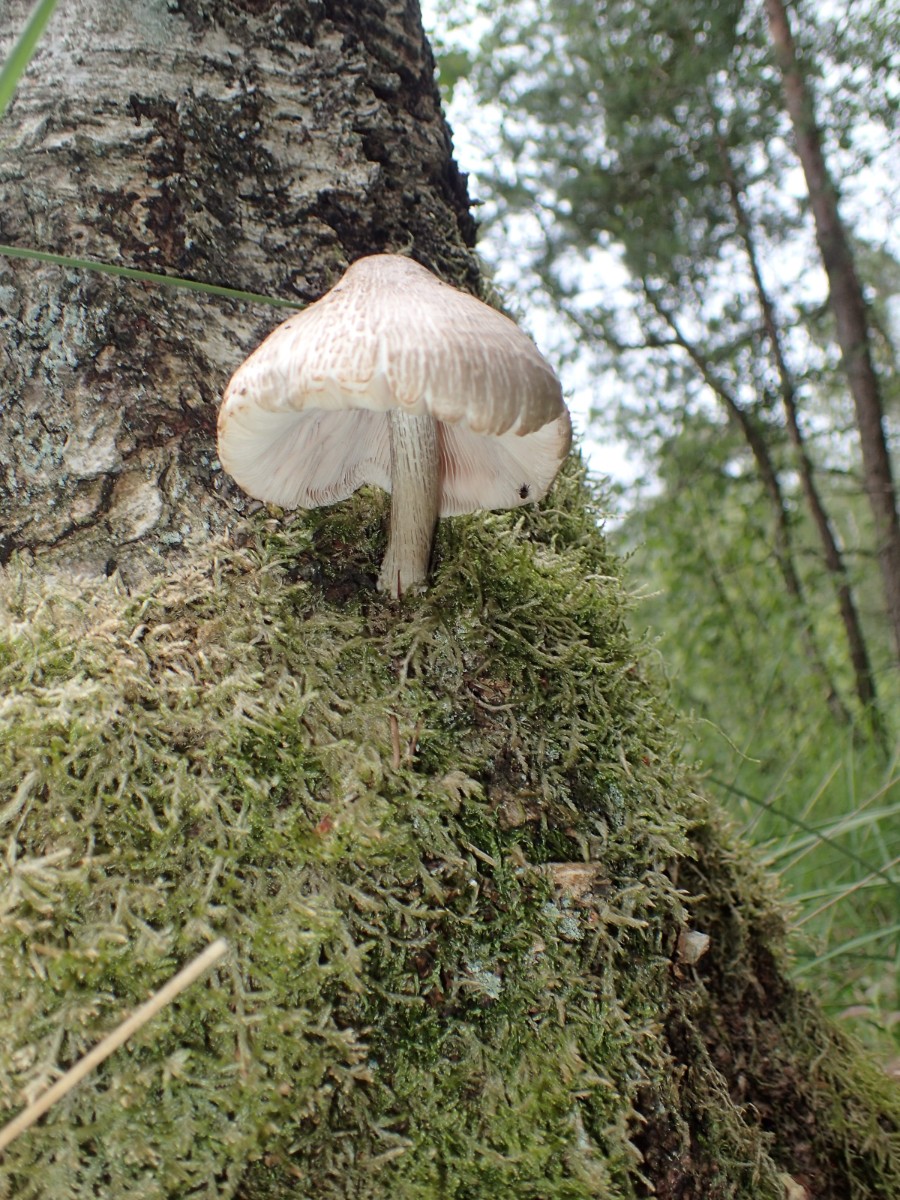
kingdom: Fungi
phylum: Basidiomycota
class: Agaricomycetes
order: Agaricales
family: Pluteaceae
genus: Pluteus
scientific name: Pluteus cervinus
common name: sodfarvet skærmhat
